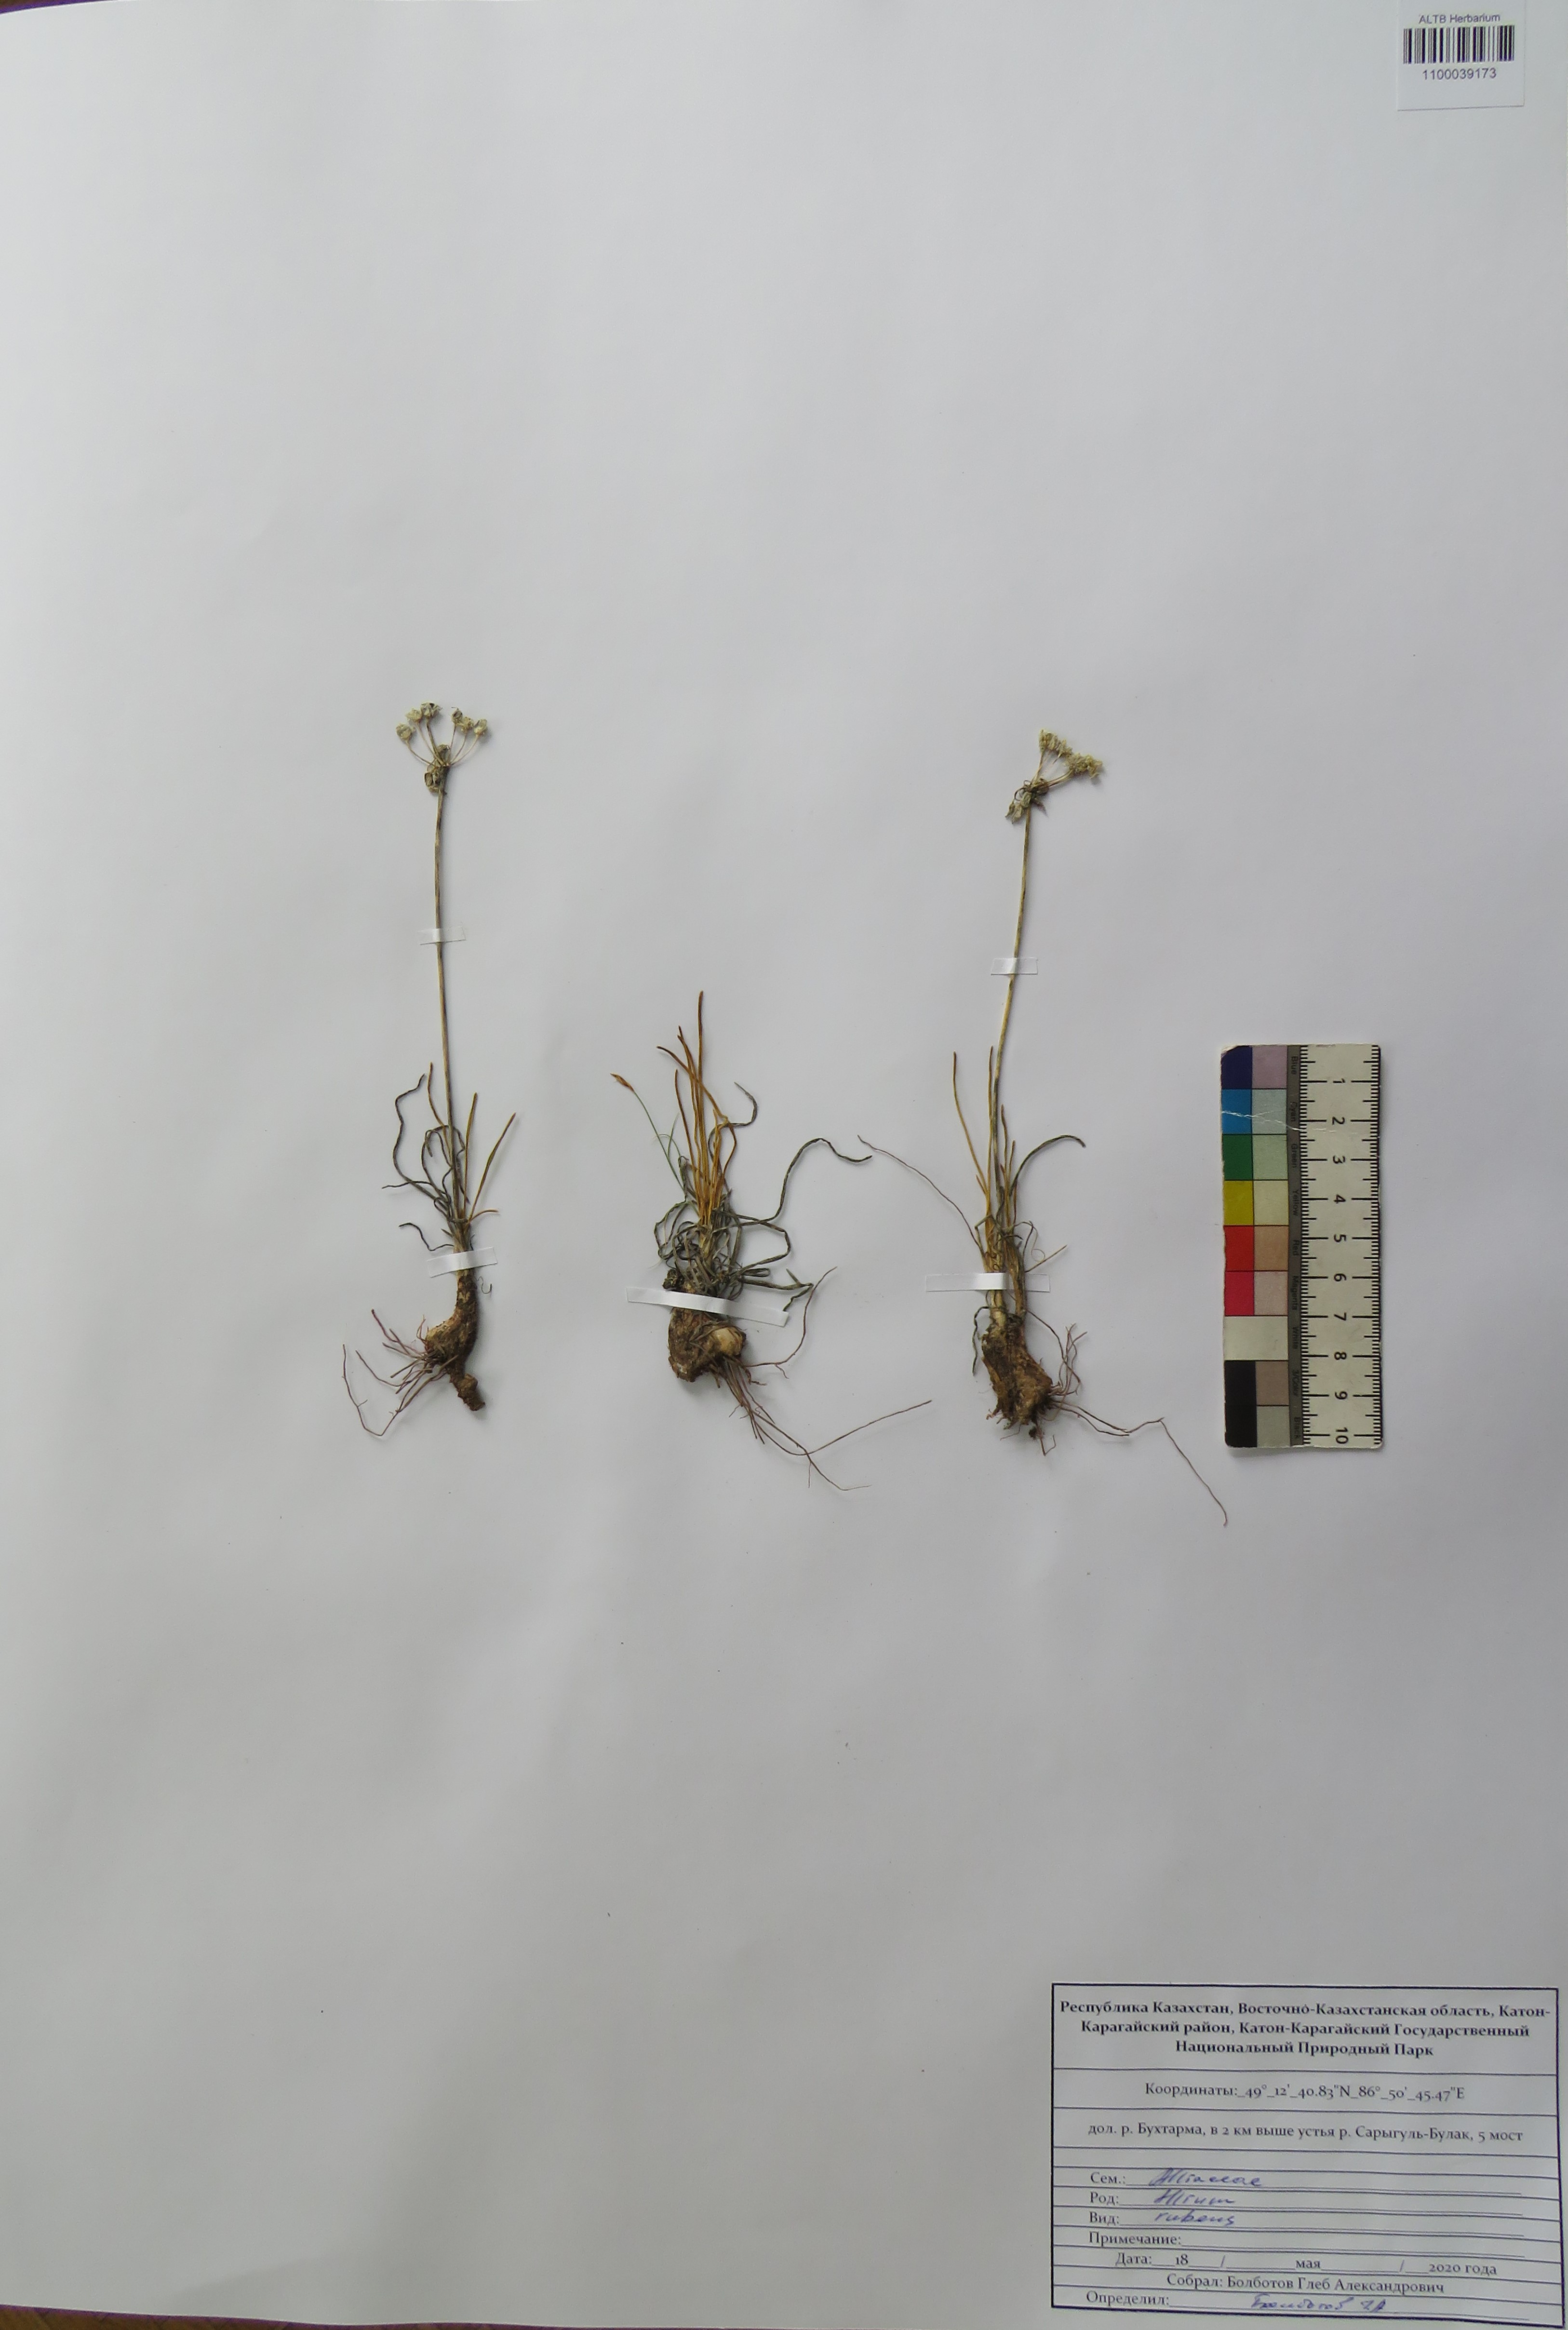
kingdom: Plantae
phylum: Tracheophyta
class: Liliopsida
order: Asparagales
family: Amaryllidaceae
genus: Allium
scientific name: Allium rubens
